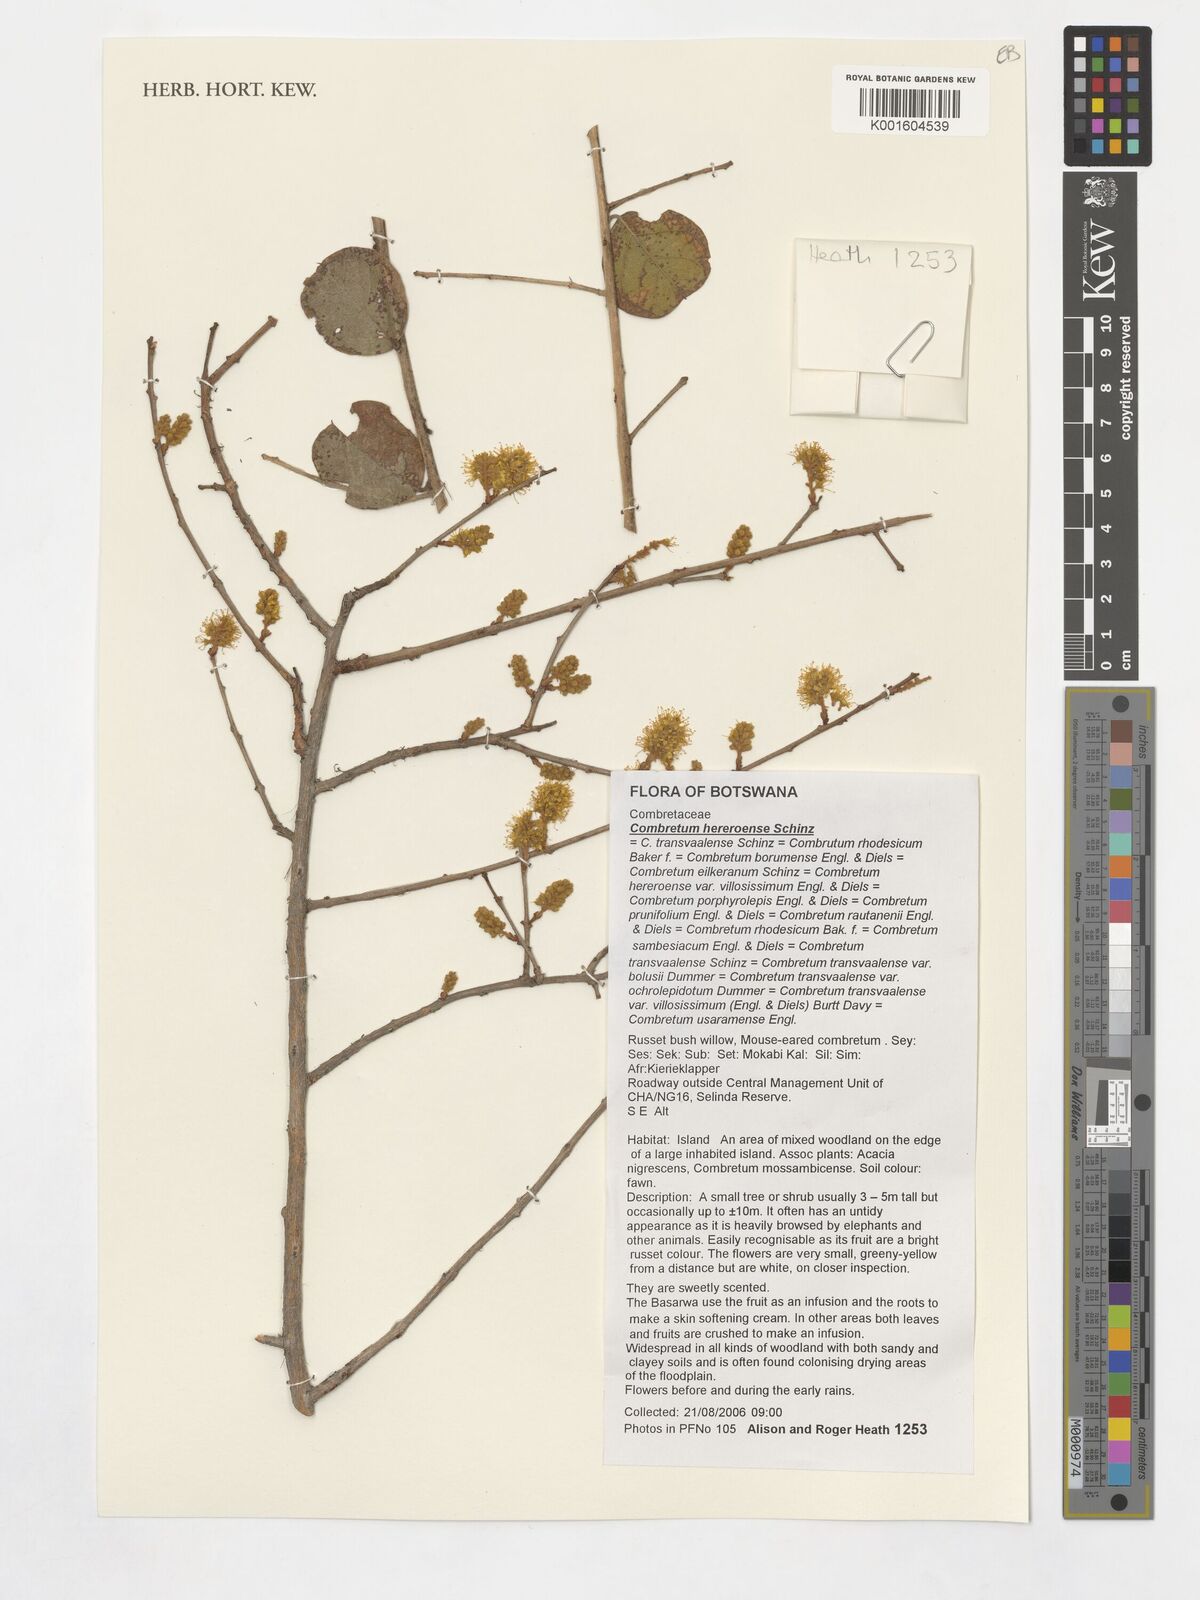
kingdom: Plantae
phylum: Tracheophyta
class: Magnoliopsida
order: Myrtales
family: Combretaceae
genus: Combretum
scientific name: Combretum hereroense
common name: Russet bushwillow
